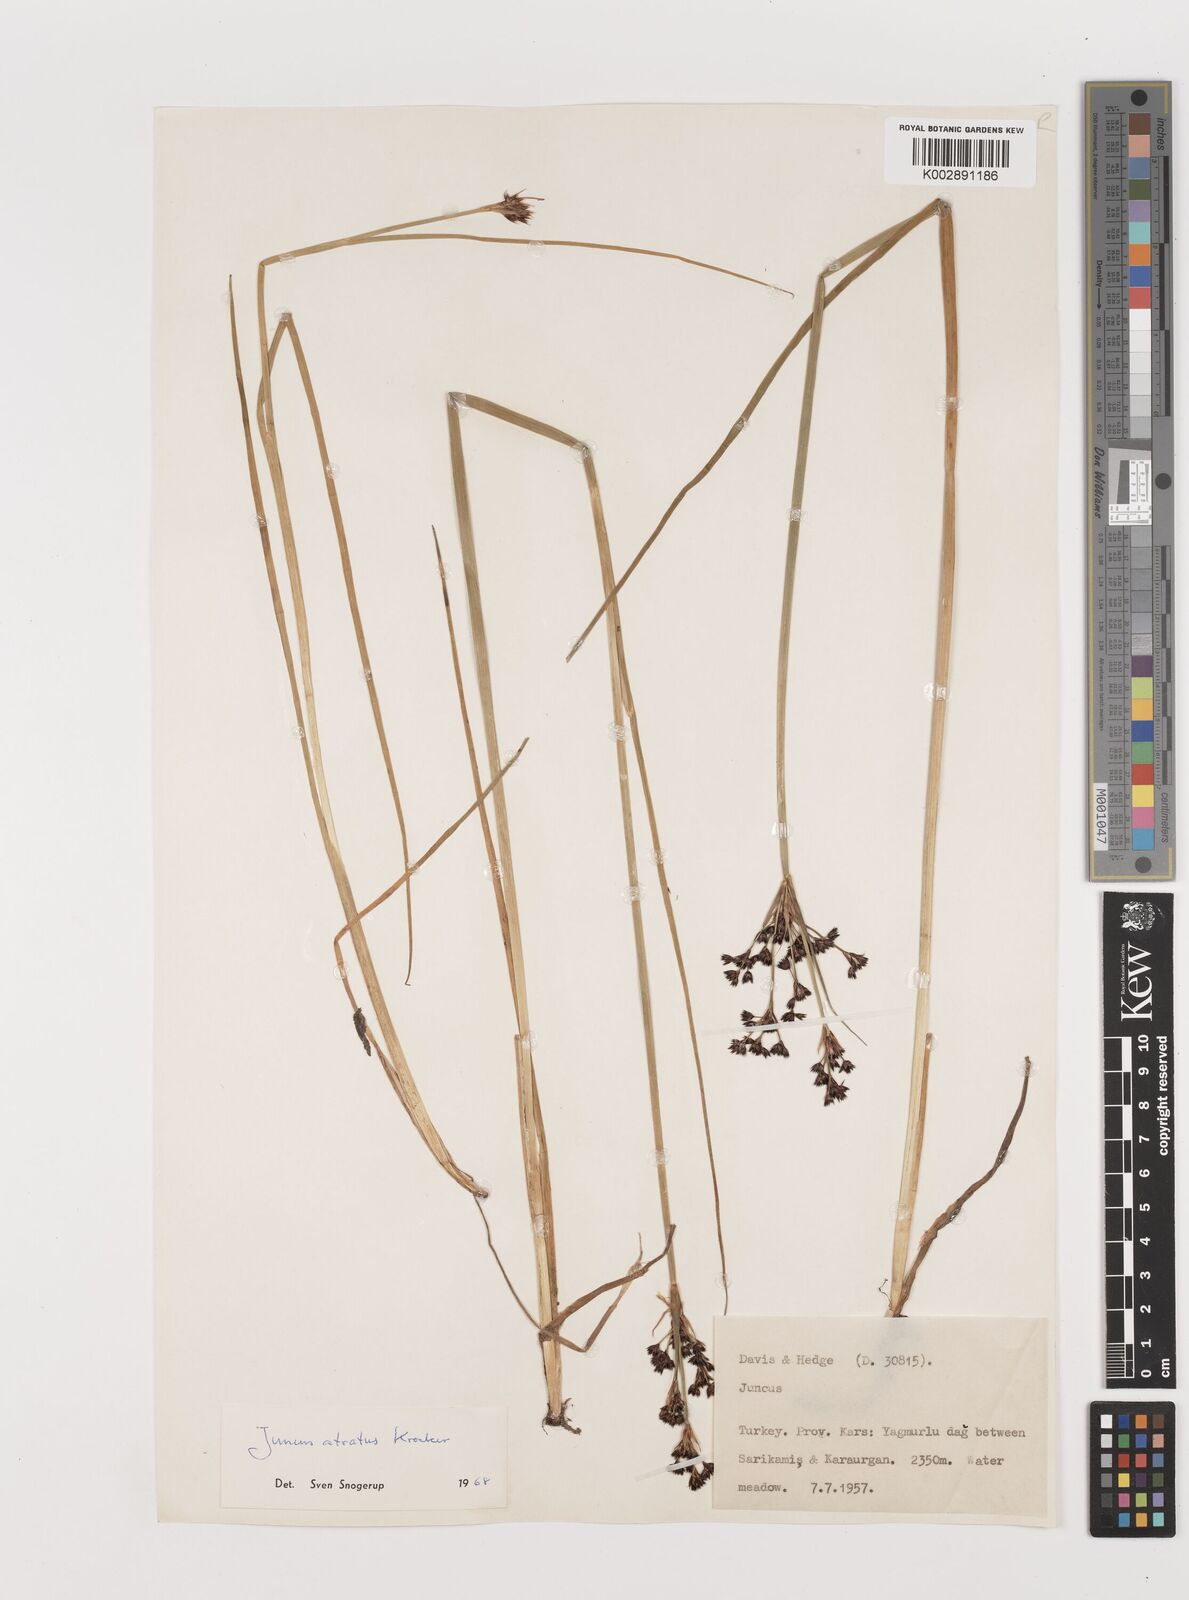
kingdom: Plantae
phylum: Tracheophyta
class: Liliopsida
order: Poales
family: Juncaceae
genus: Juncus
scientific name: Juncus jacquinii
